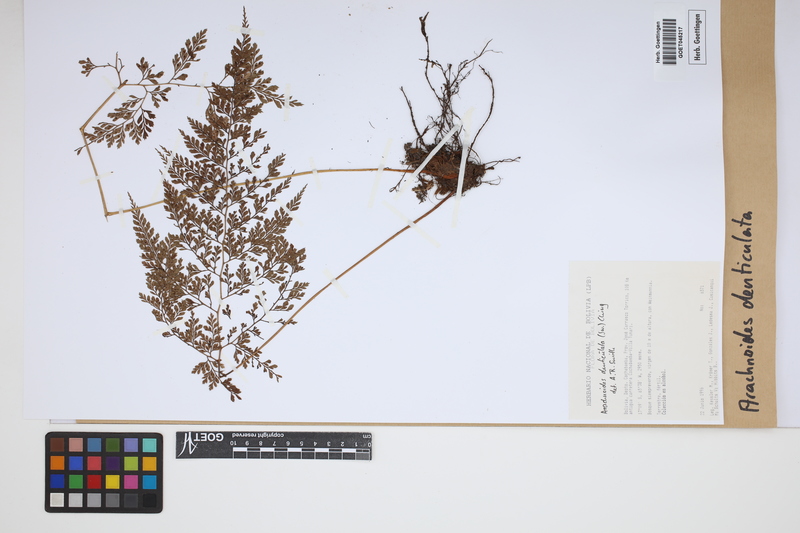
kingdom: Plantae
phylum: Tracheophyta
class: Polypodiopsida
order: Polypodiales
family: Dryopteridaceae
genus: Arachniodes
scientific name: Arachniodes denticulata
